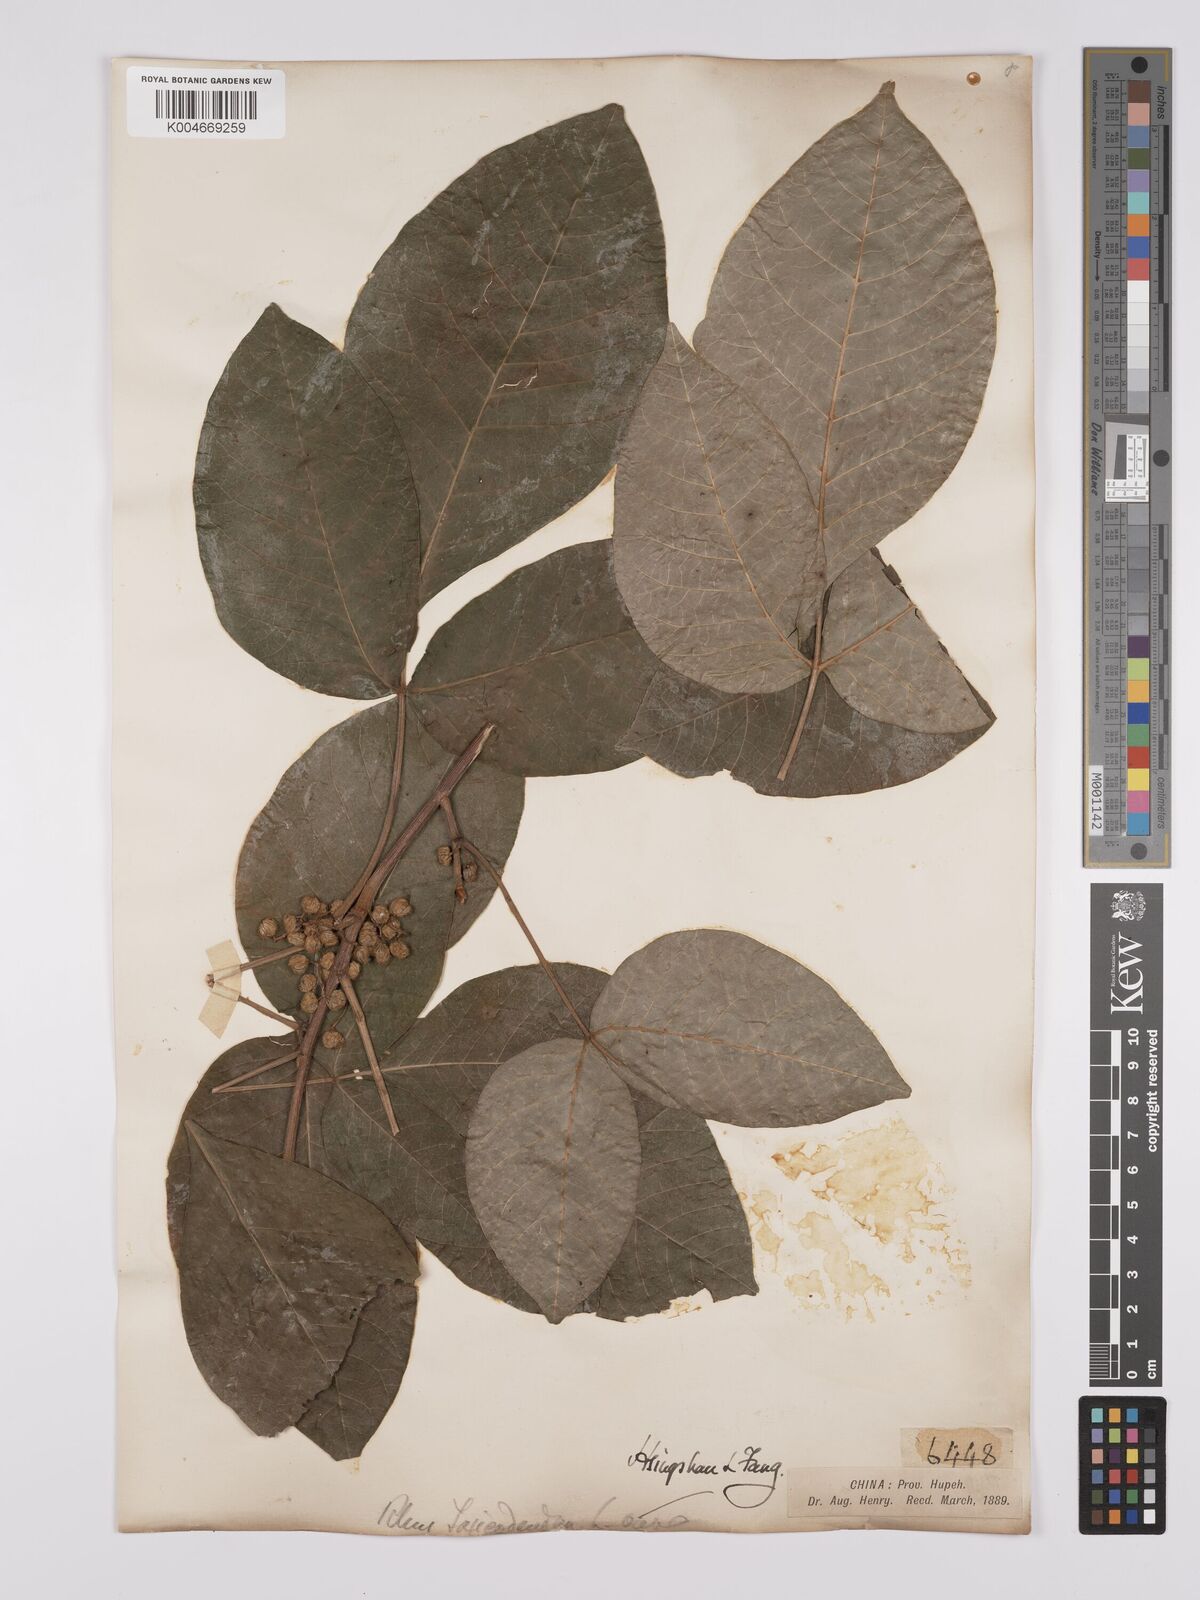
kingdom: Plantae
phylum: Tracheophyta
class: Magnoliopsida
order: Sapindales
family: Anacardiaceae
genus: Toxicodendron
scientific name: Toxicodendron succedaneum
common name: Wax tree
